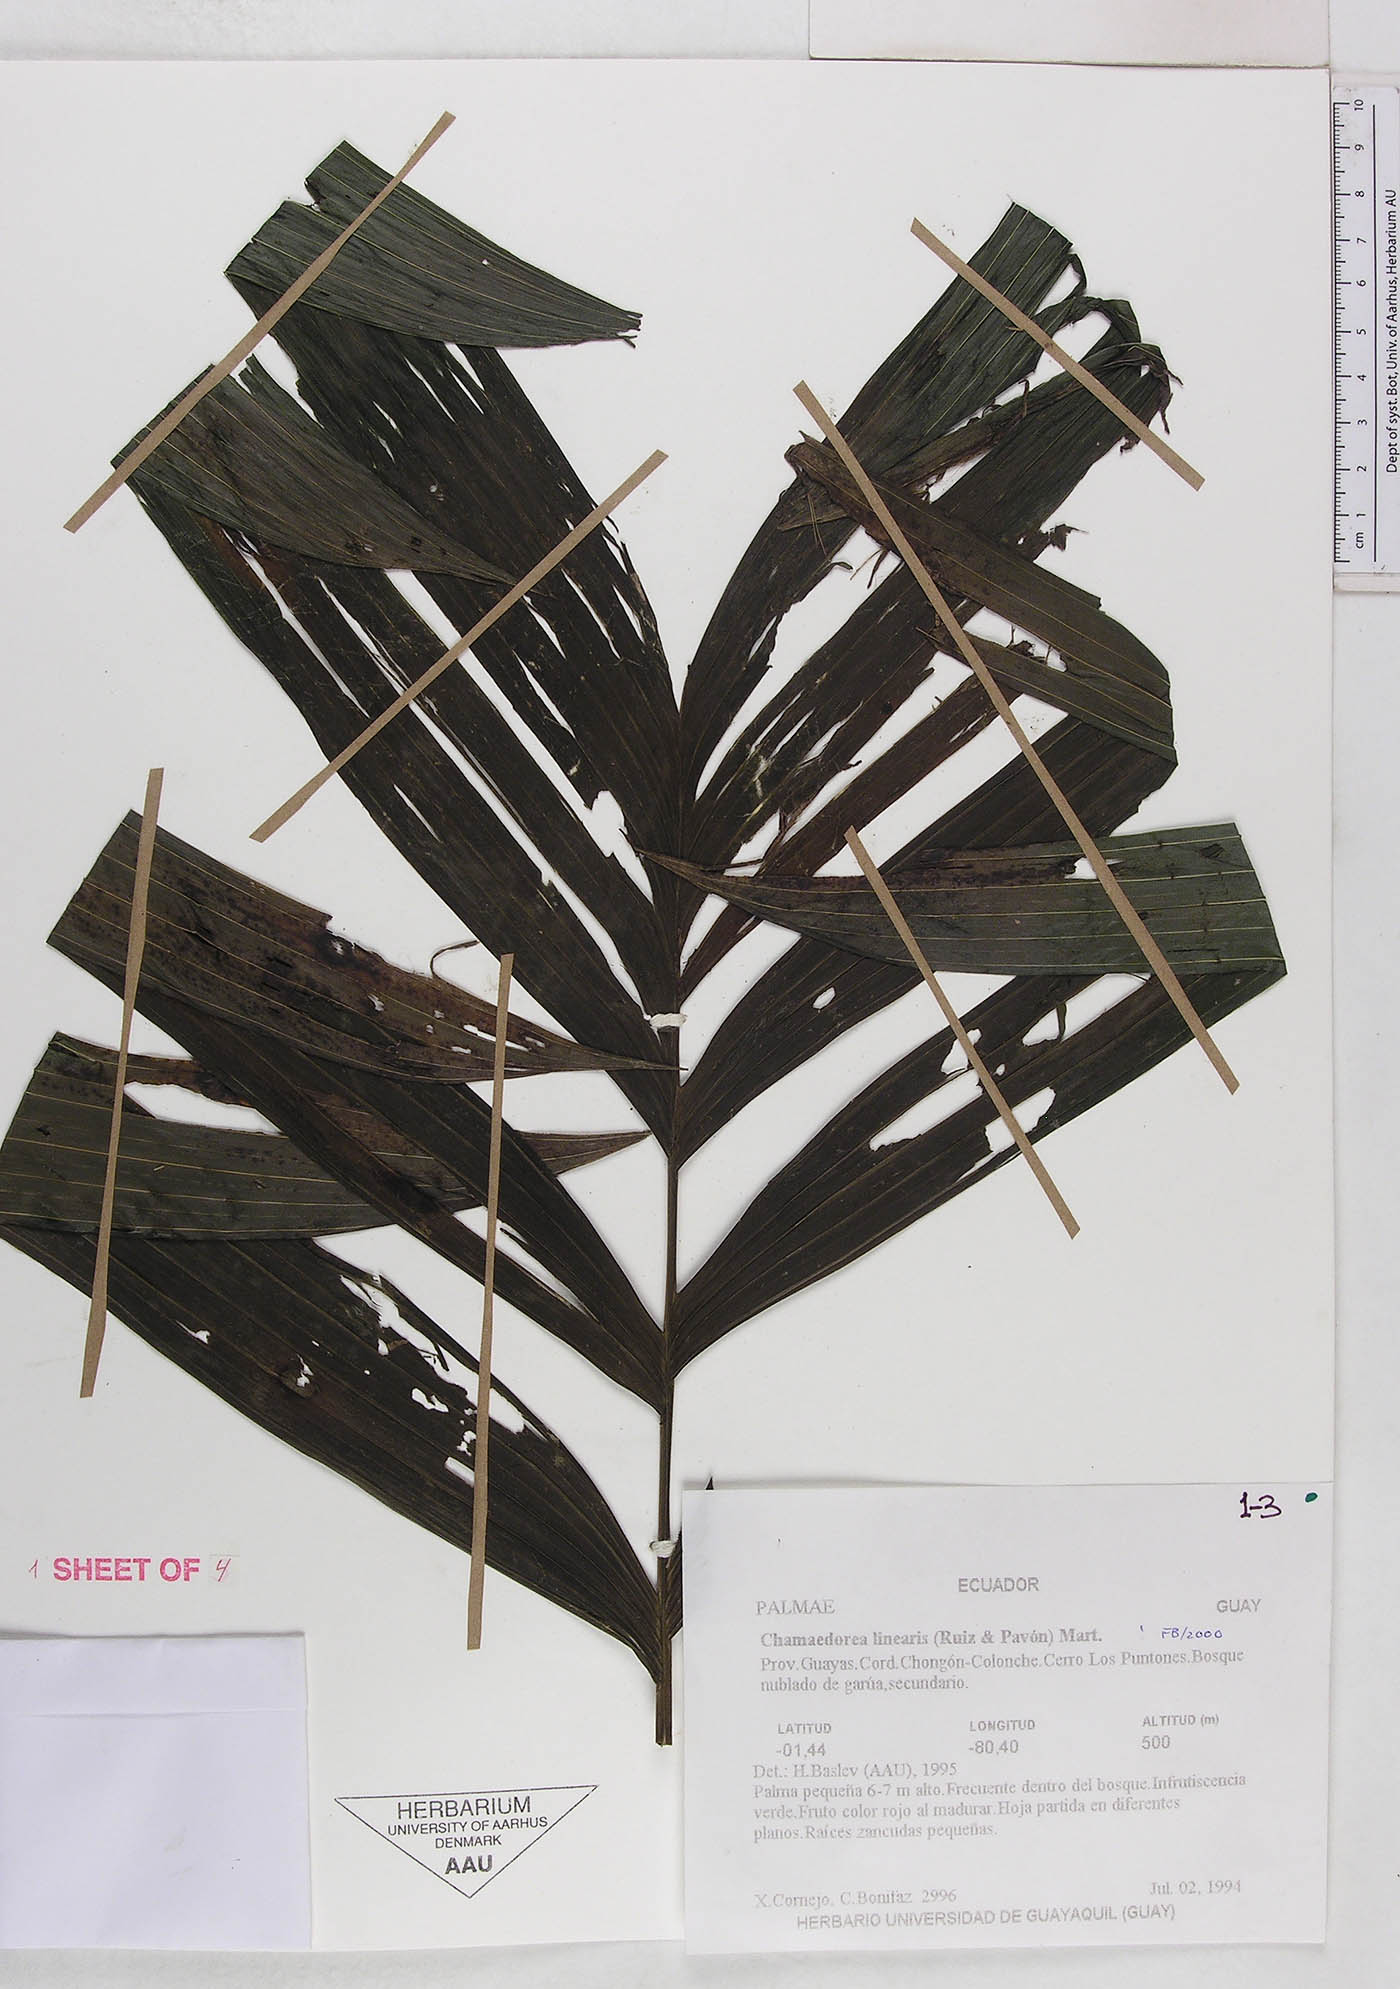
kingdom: Plantae
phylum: Tracheophyta
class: Liliopsida
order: Arecales
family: Arecaceae
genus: Chamaedorea
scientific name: Chamaedorea linearis
